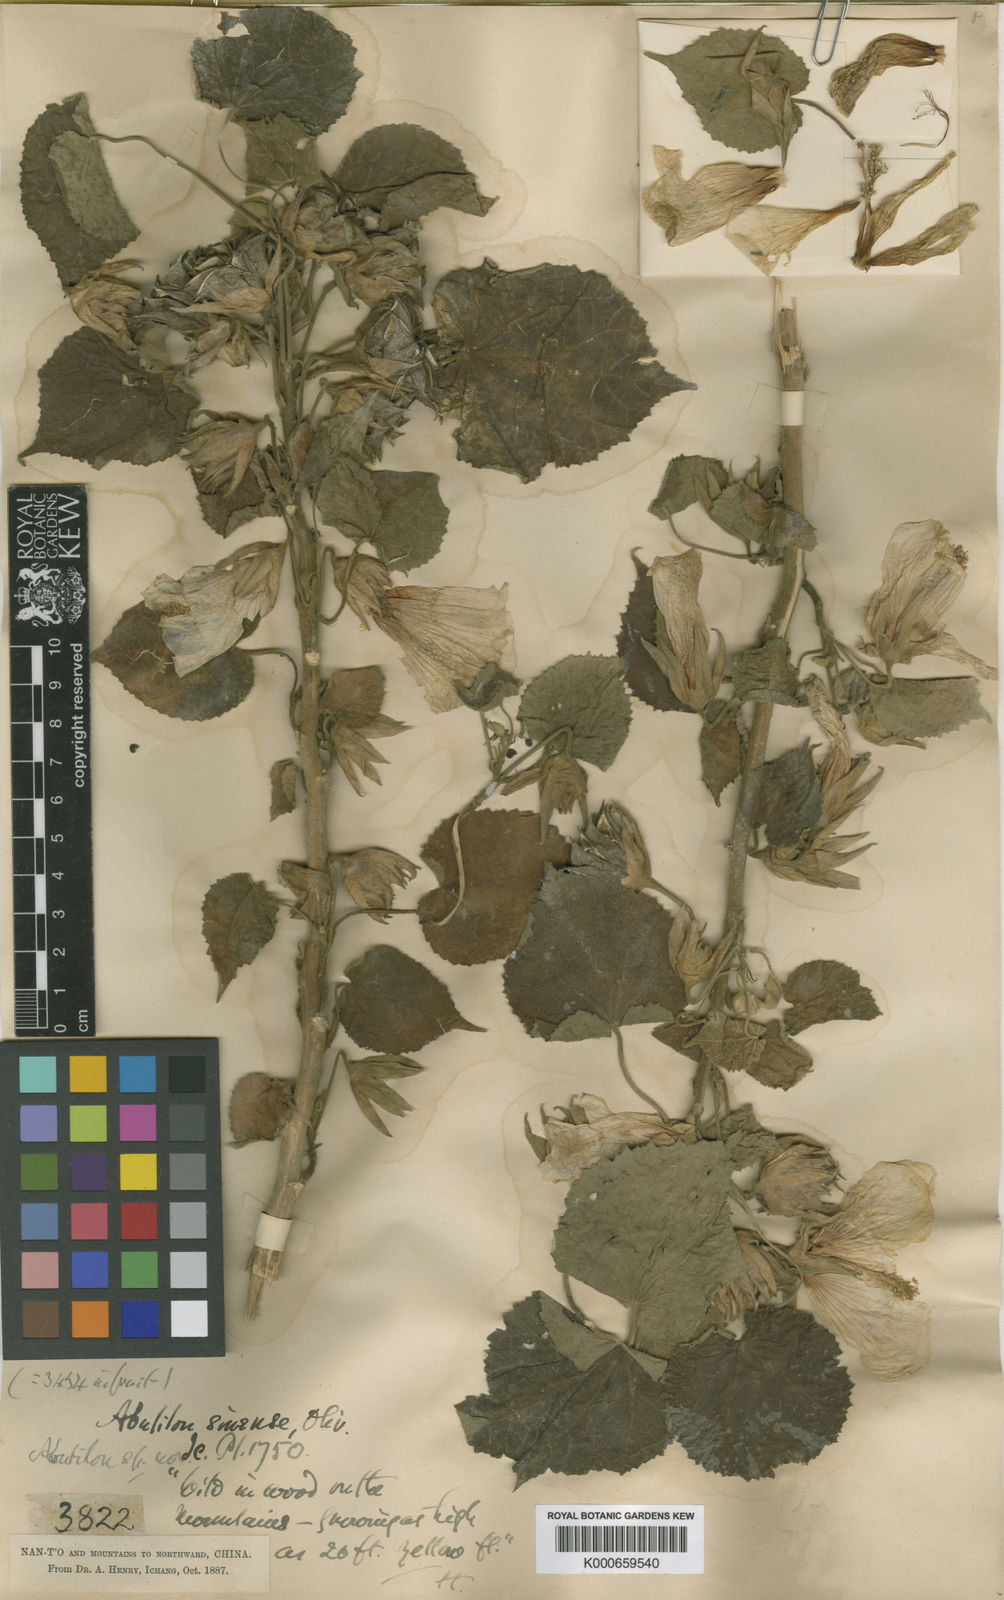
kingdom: Plantae
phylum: Tracheophyta
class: Magnoliopsida
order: Malvales
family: Malvaceae
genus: Abutilon
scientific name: Abutilon sinense
